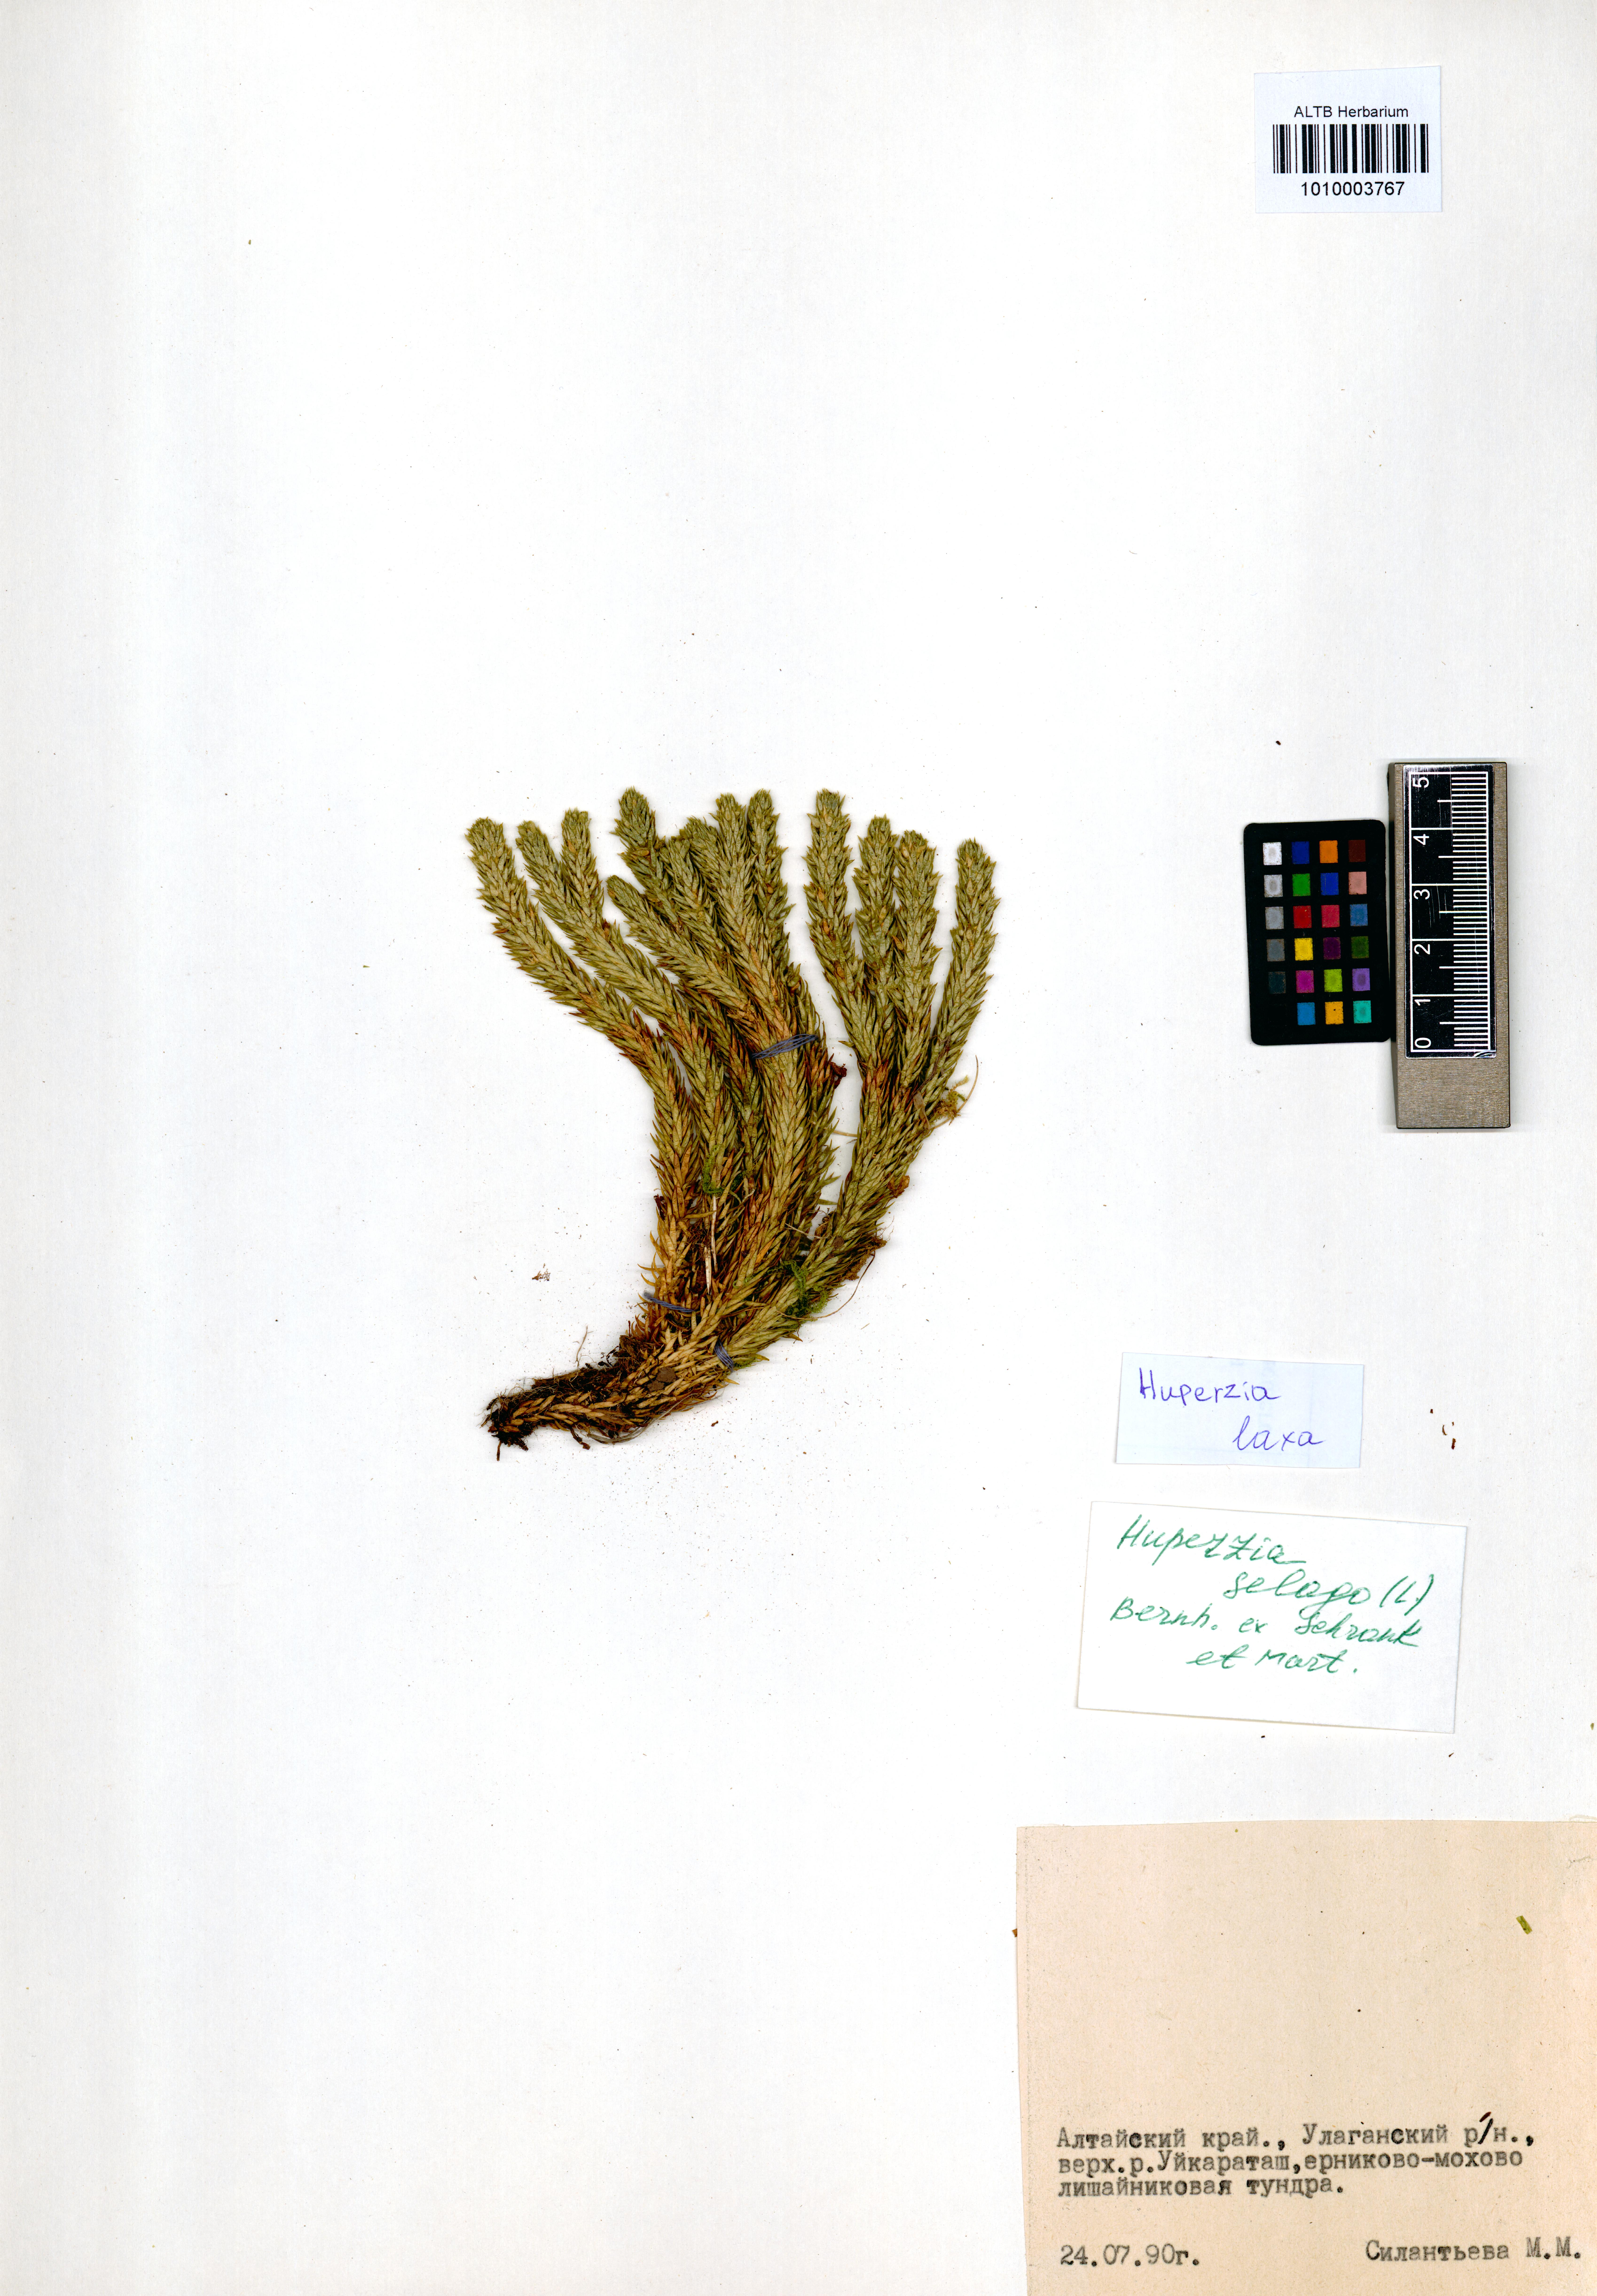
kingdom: Plantae
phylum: Tracheophyta
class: Lycopodiopsida
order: Lycopodiales
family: Lycopodiaceae
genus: Phlegmariurus
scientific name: Phlegmariurus carinatus
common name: Keeled tassel-fern
